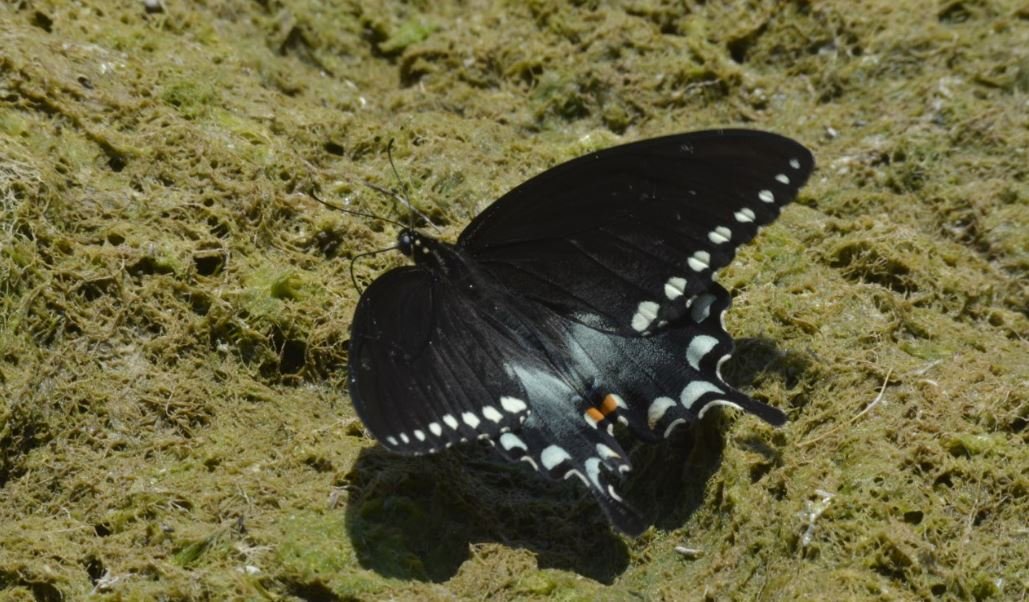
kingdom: Animalia
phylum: Arthropoda
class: Insecta
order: Lepidoptera
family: Papilionidae
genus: Pterourus
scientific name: Pterourus troilus
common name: Spicebush Swallowtail
